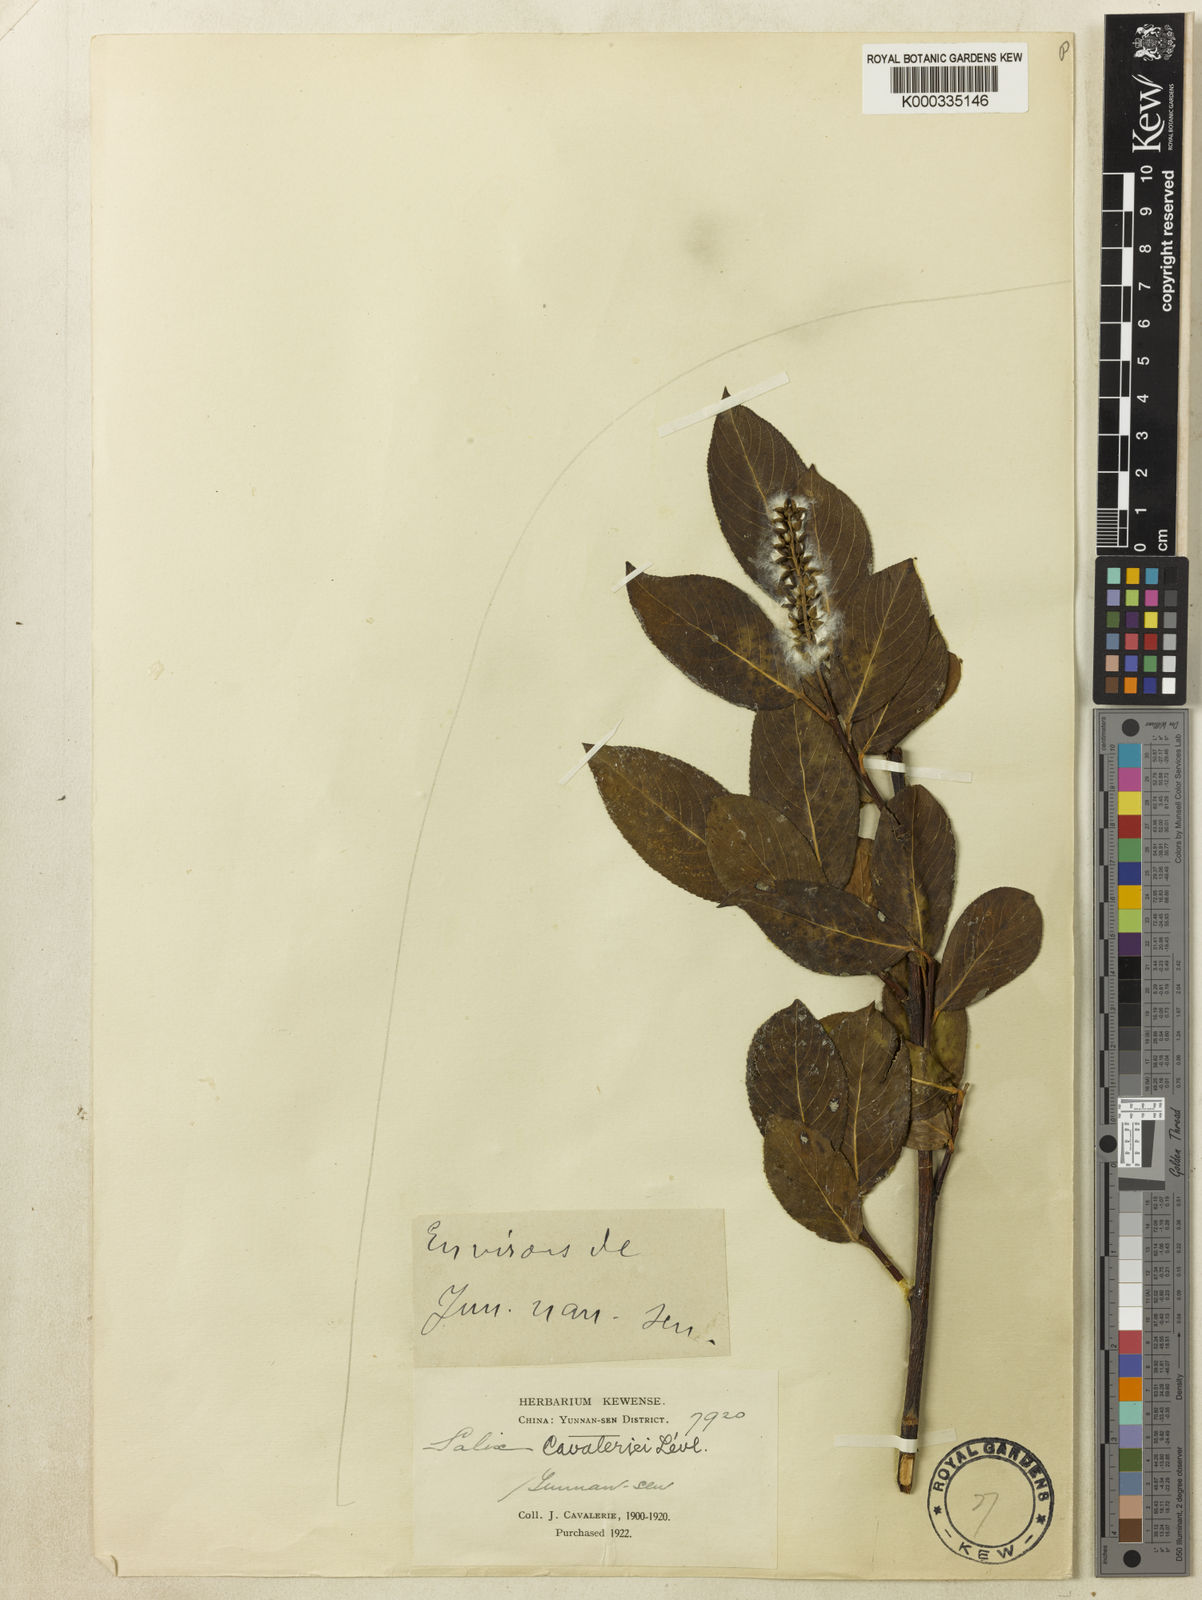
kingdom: Plantae
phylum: Tracheophyta
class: Magnoliopsida
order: Malpighiales
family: Salicaceae
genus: Salix
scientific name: Salix
